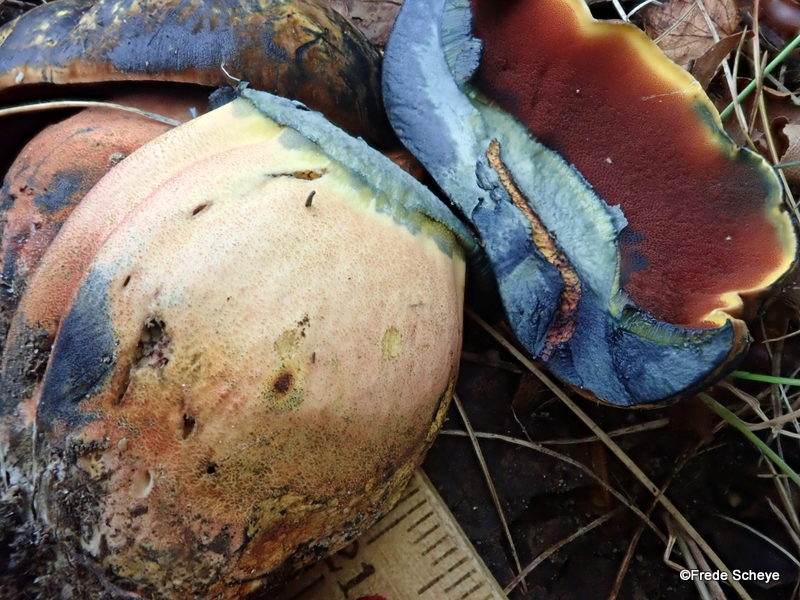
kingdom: Fungi
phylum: Basidiomycota
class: Agaricomycetes
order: Boletales
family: Boletaceae
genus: Neoboletus
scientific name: Neoboletus erythropus
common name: punktstokket indigorørhat
